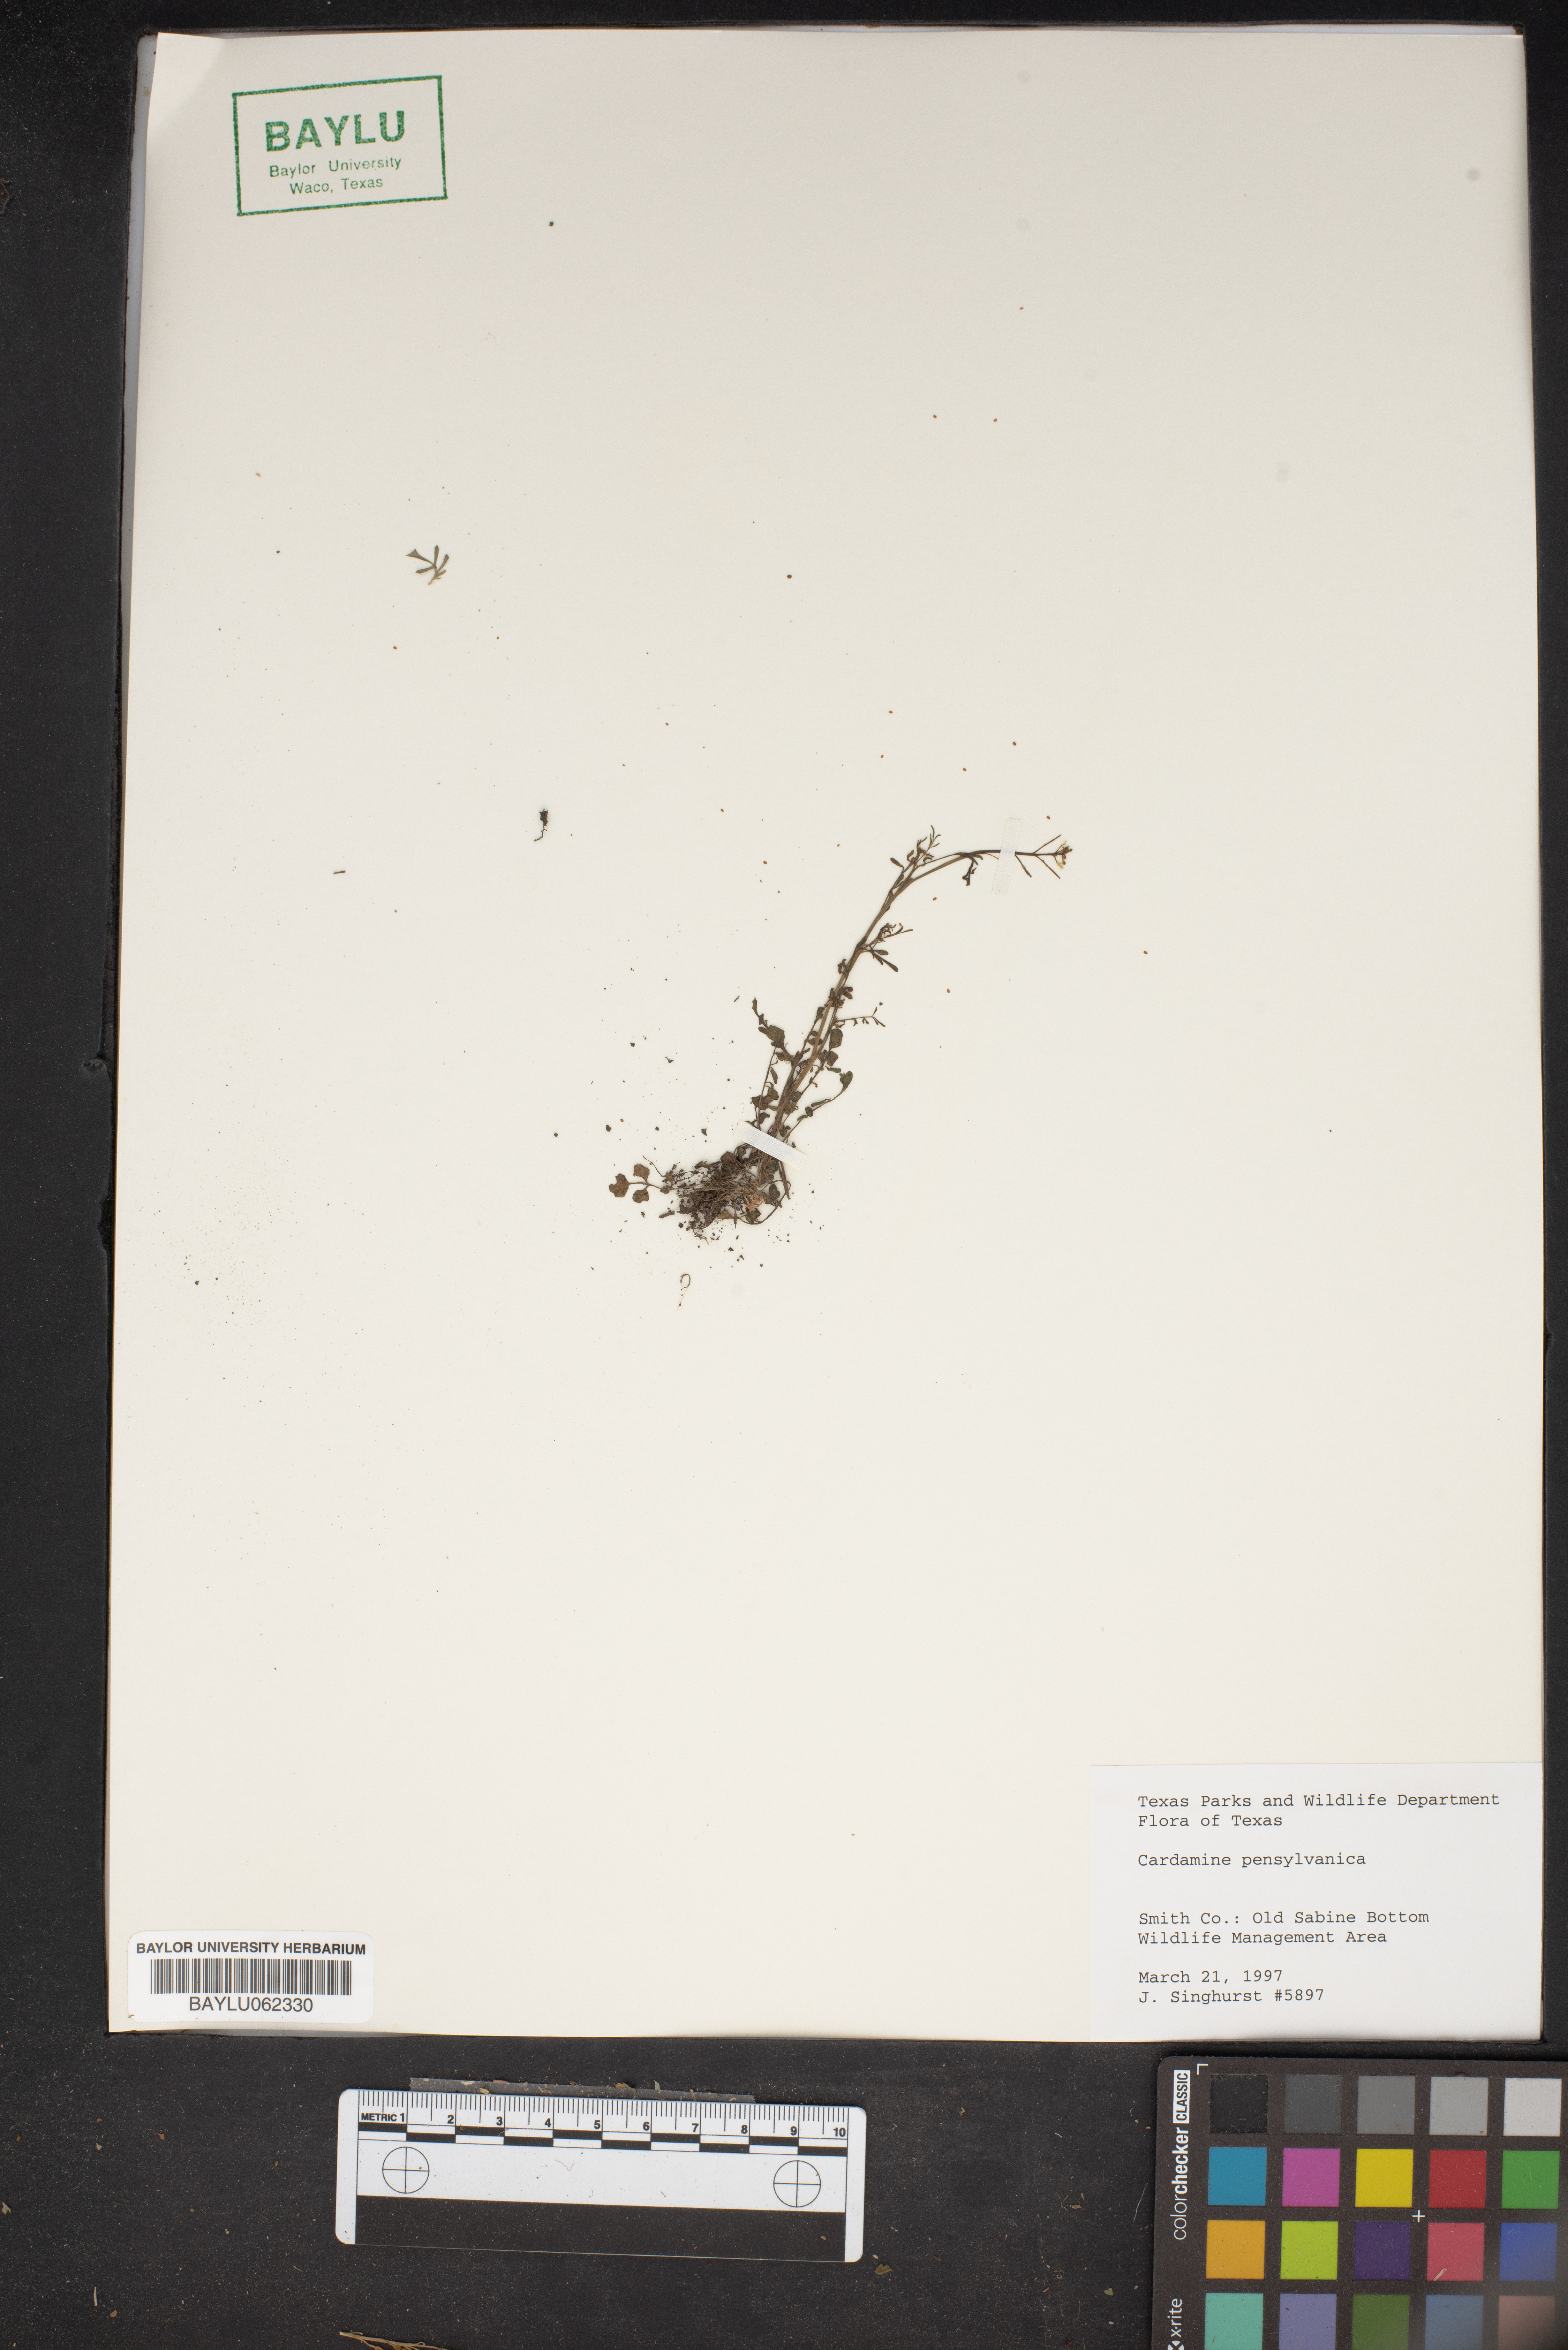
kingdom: Plantae
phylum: Tracheophyta
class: Magnoliopsida
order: Brassicales
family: Brassicaceae
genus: Cardamine
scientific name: Cardamine pensylvanica
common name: Pennsylvania bittercress
